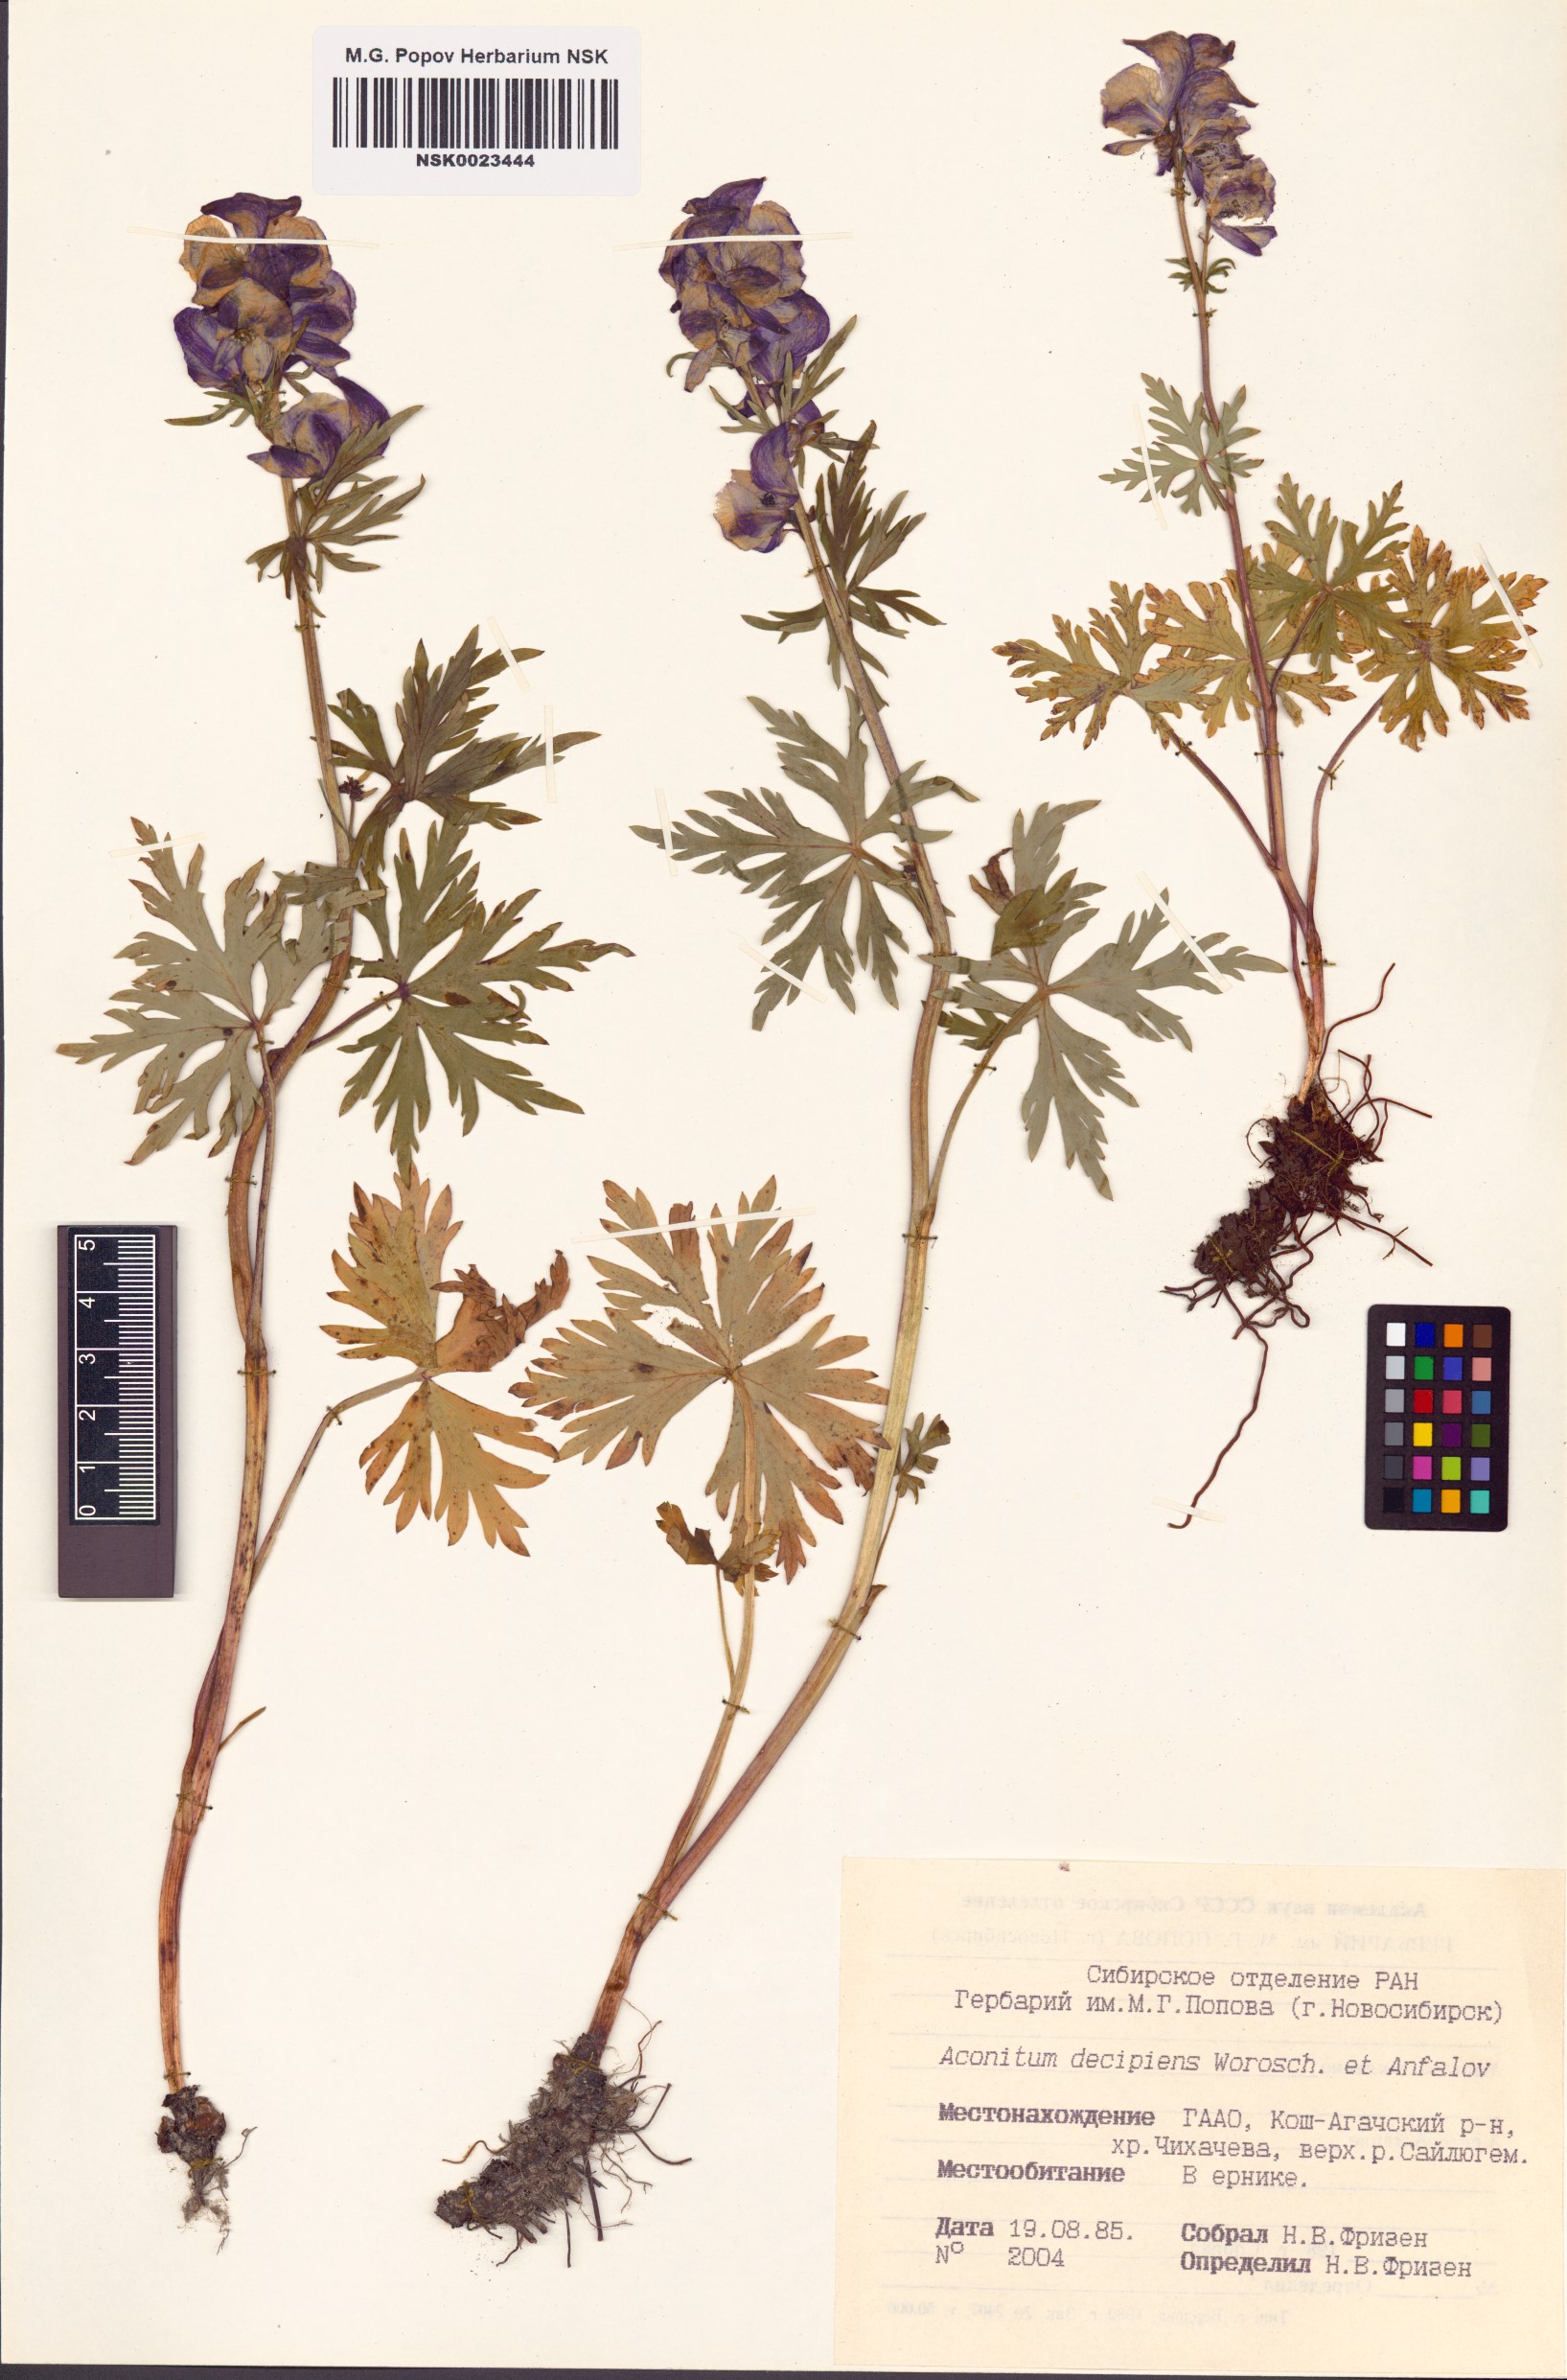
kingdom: Plantae
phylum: Tracheophyta
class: Magnoliopsida
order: Ranunculales
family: Ranunculaceae
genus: Aconitum
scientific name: Aconitum decipiens
